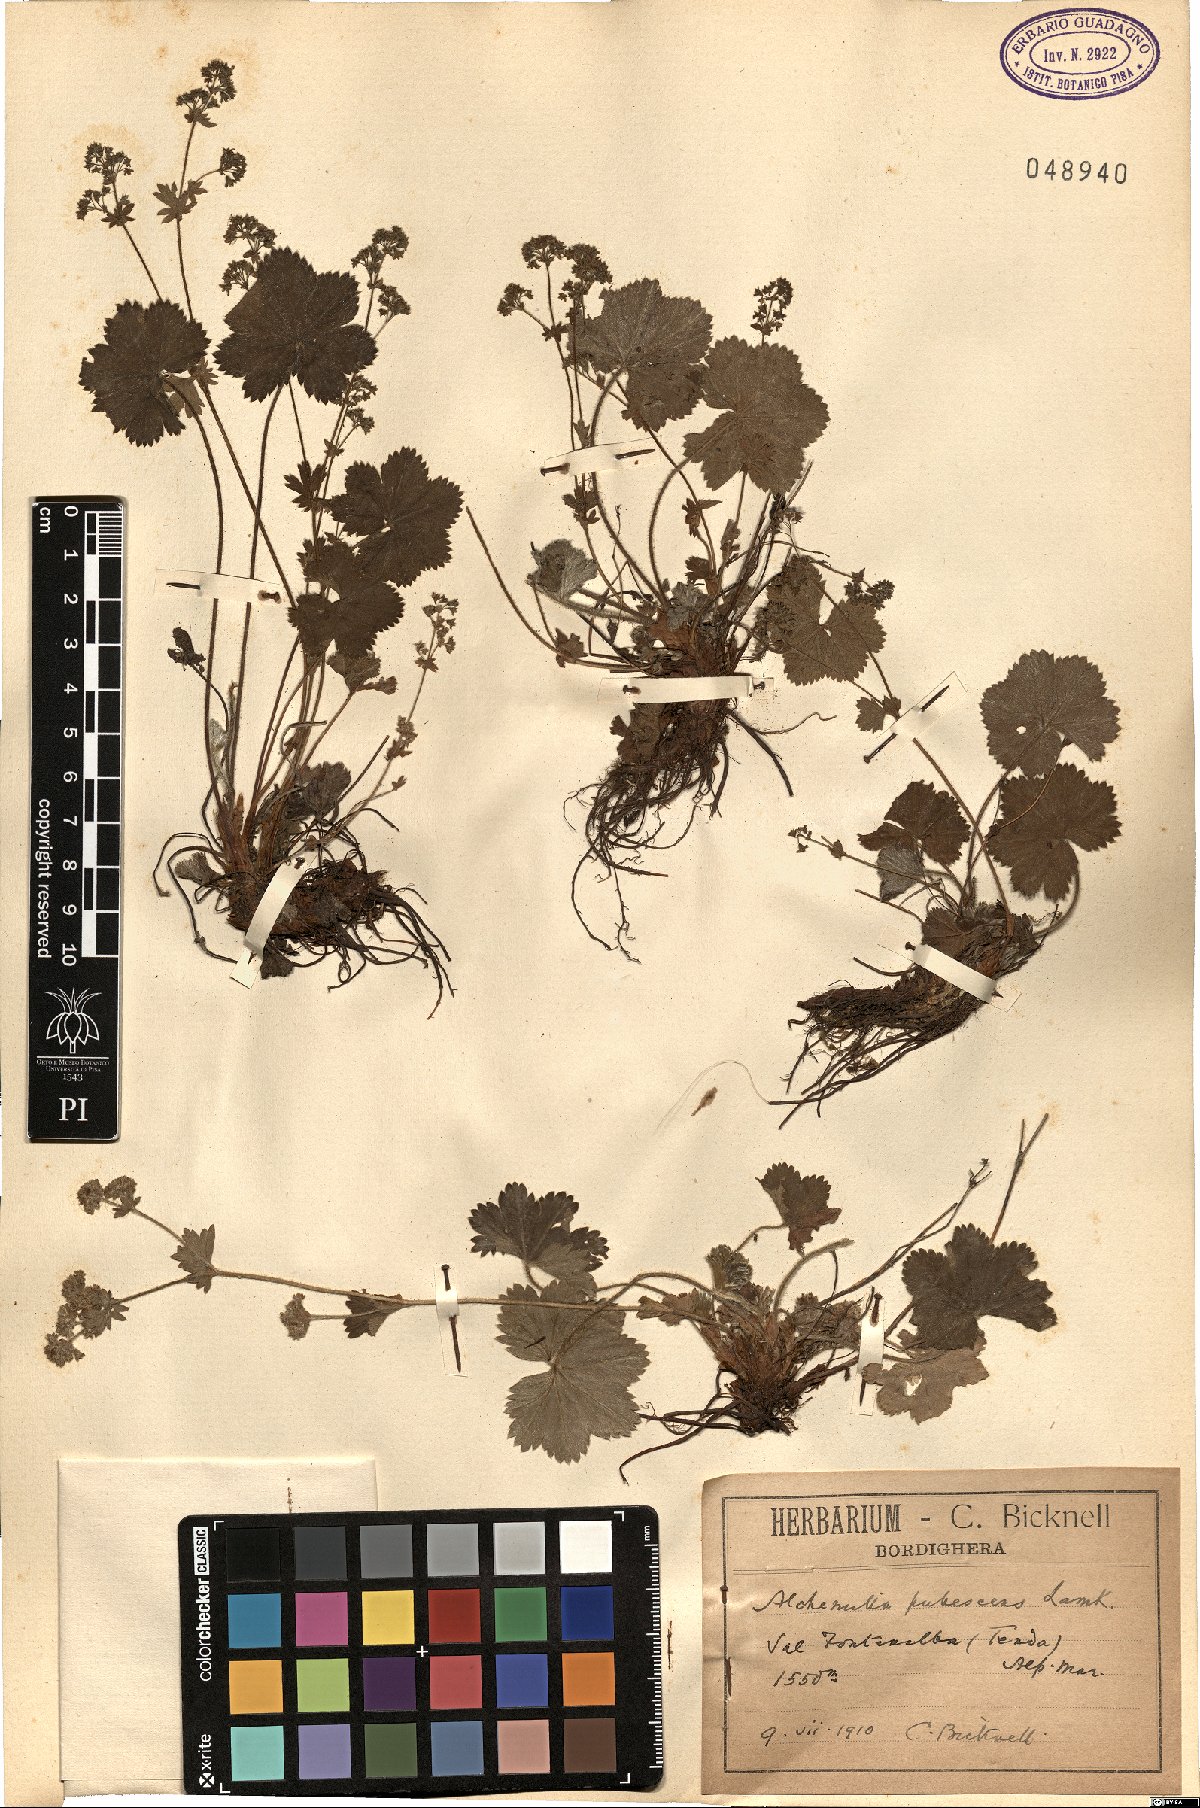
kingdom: Plantae
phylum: Tracheophyta
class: Magnoliopsida
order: Rosales
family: Rosaceae
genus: Alchemilla
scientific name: Alchemilla hybrida
